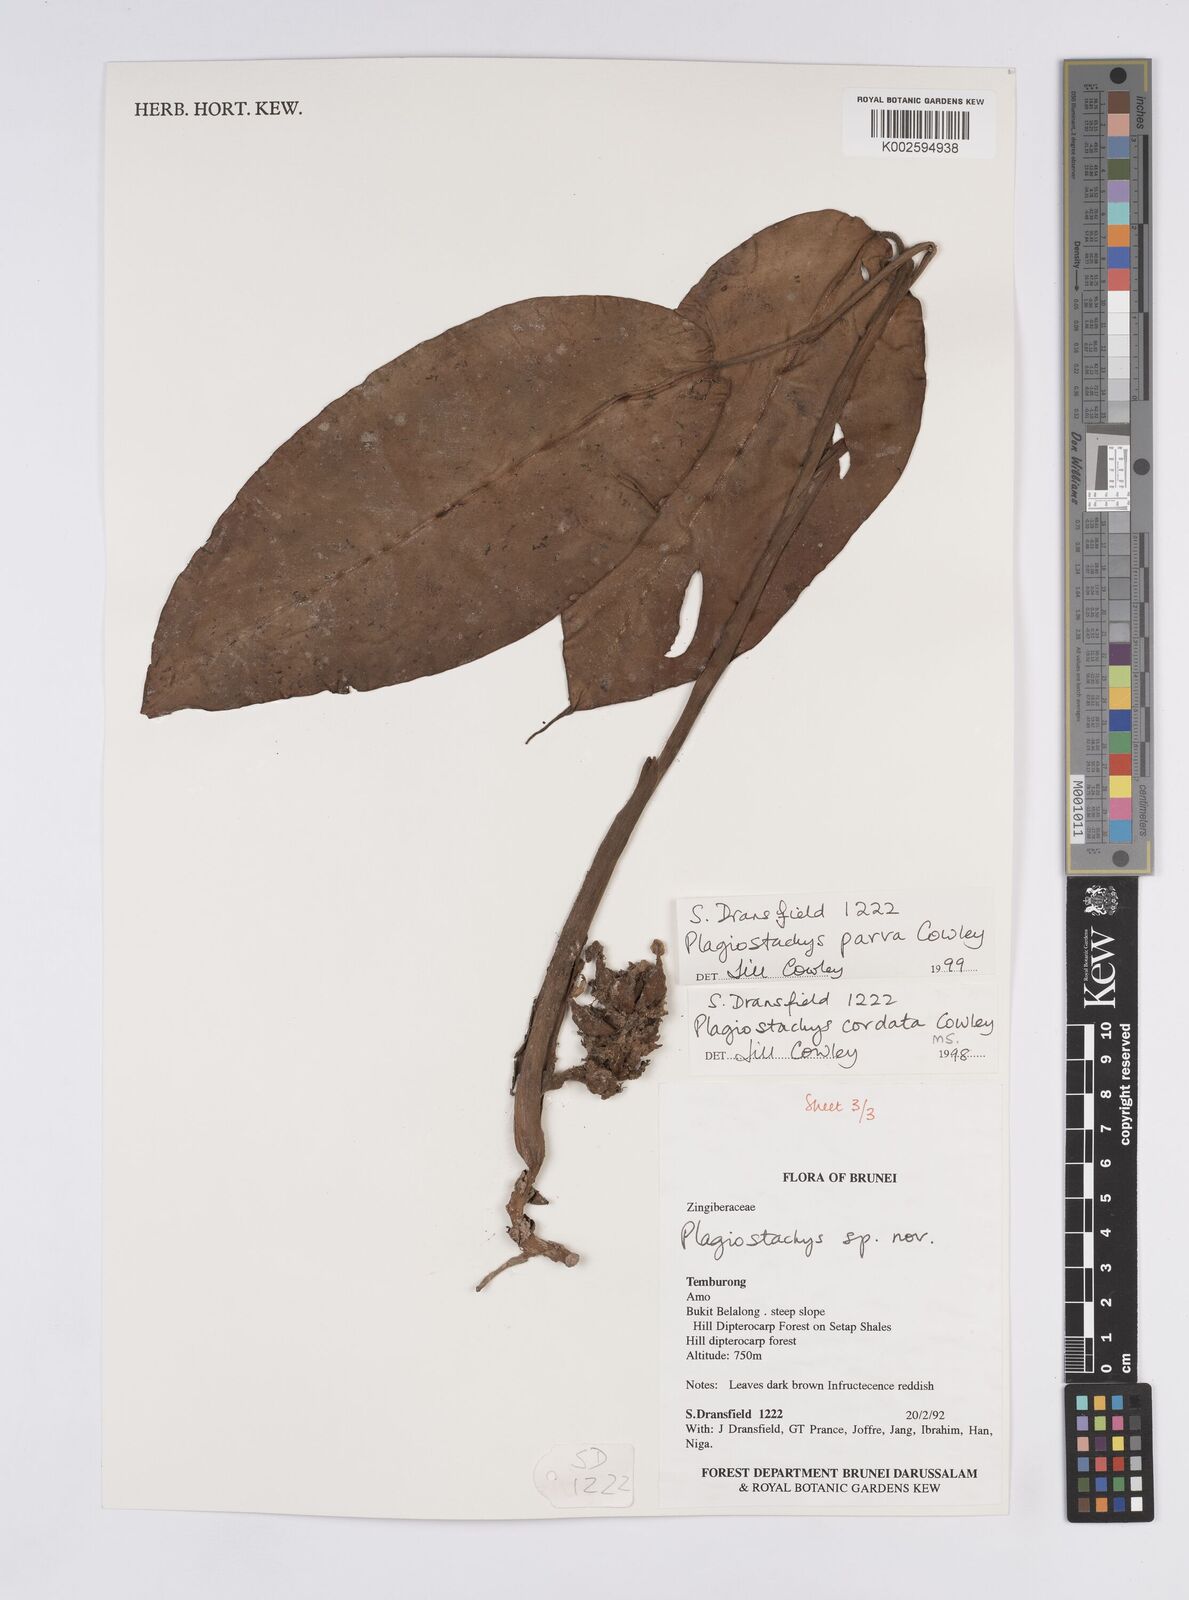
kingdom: Plantae
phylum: Tracheophyta
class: Liliopsida
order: Zingiberales
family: Zingiberaceae
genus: Plagiostachys
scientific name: Plagiostachys parva
